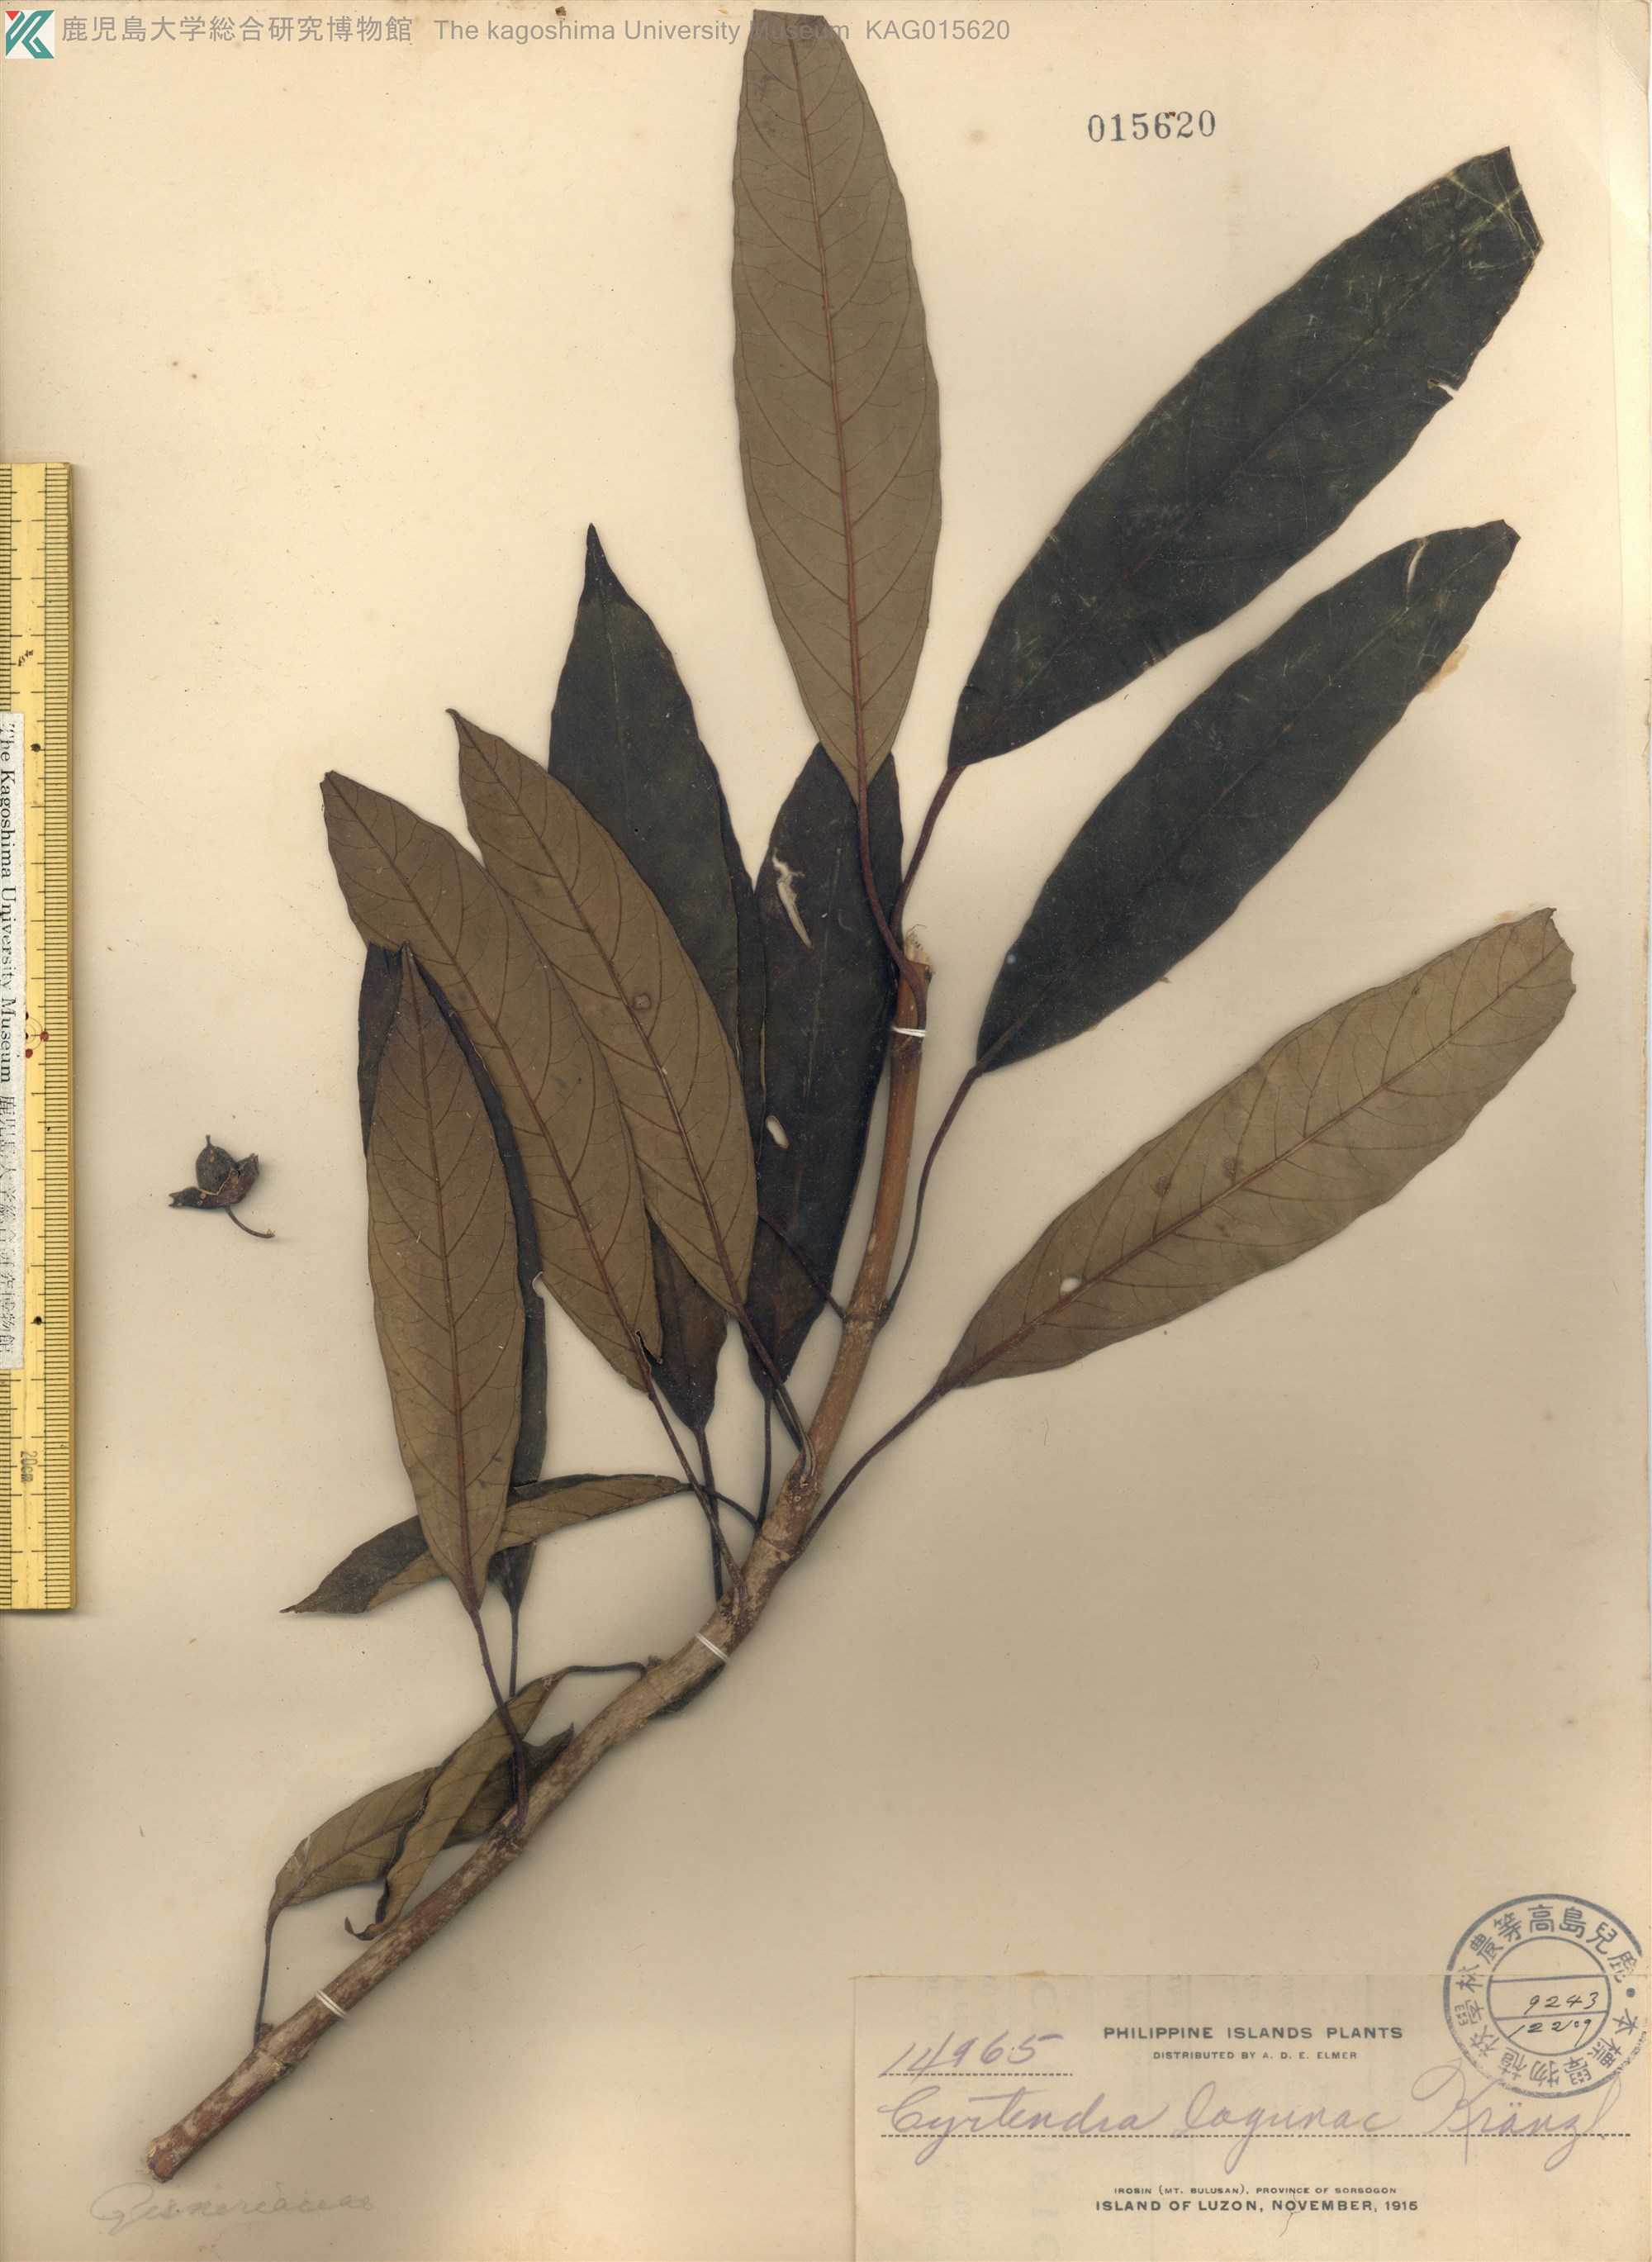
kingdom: Plantae
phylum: Tracheophyta
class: Magnoliopsida
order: Lamiales
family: Gesneriaceae
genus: Cyrtandra
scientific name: Cyrtandra lagunae
